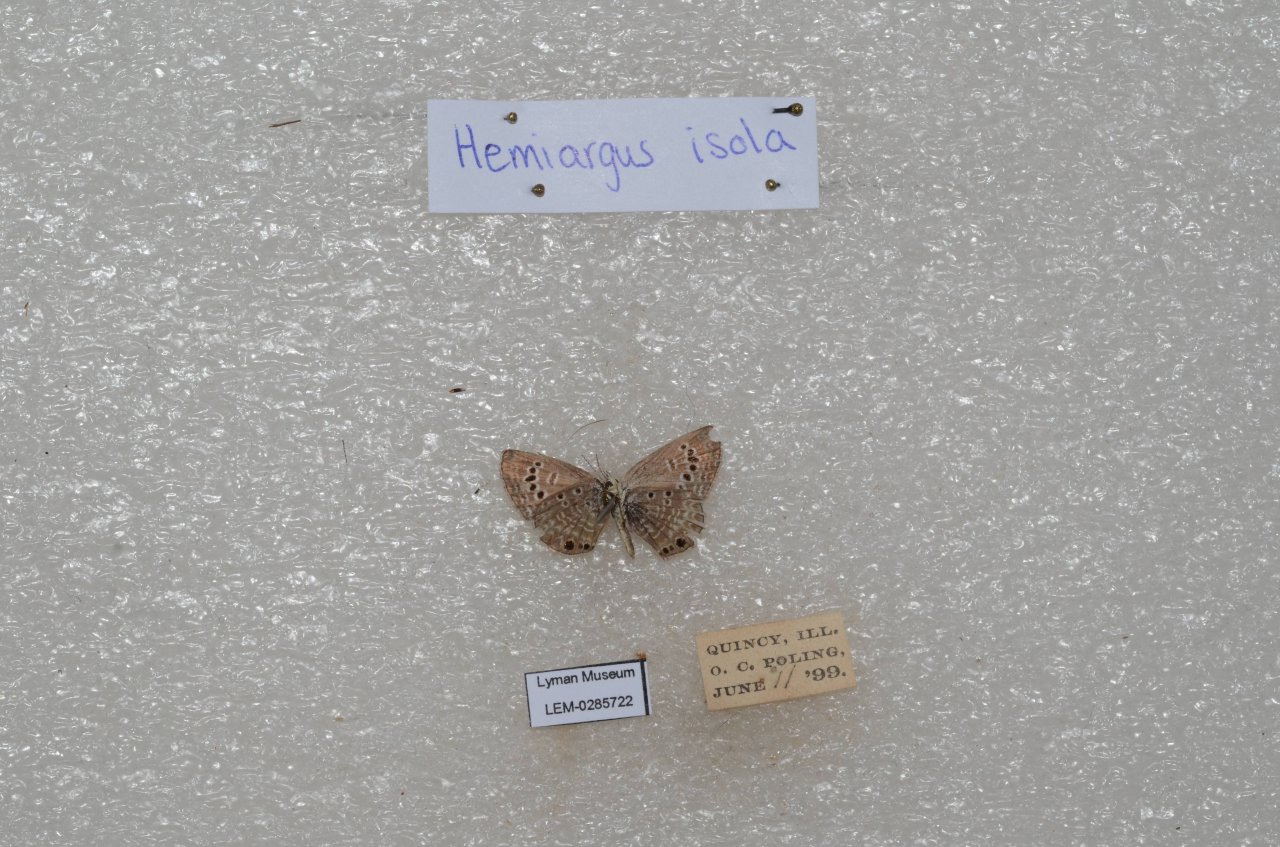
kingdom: Animalia
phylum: Arthropoda
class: Insecta
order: Lepidoptera
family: Lycaenidae
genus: Echinargus
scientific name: Echinargus isola
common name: Reakirt's Blue
